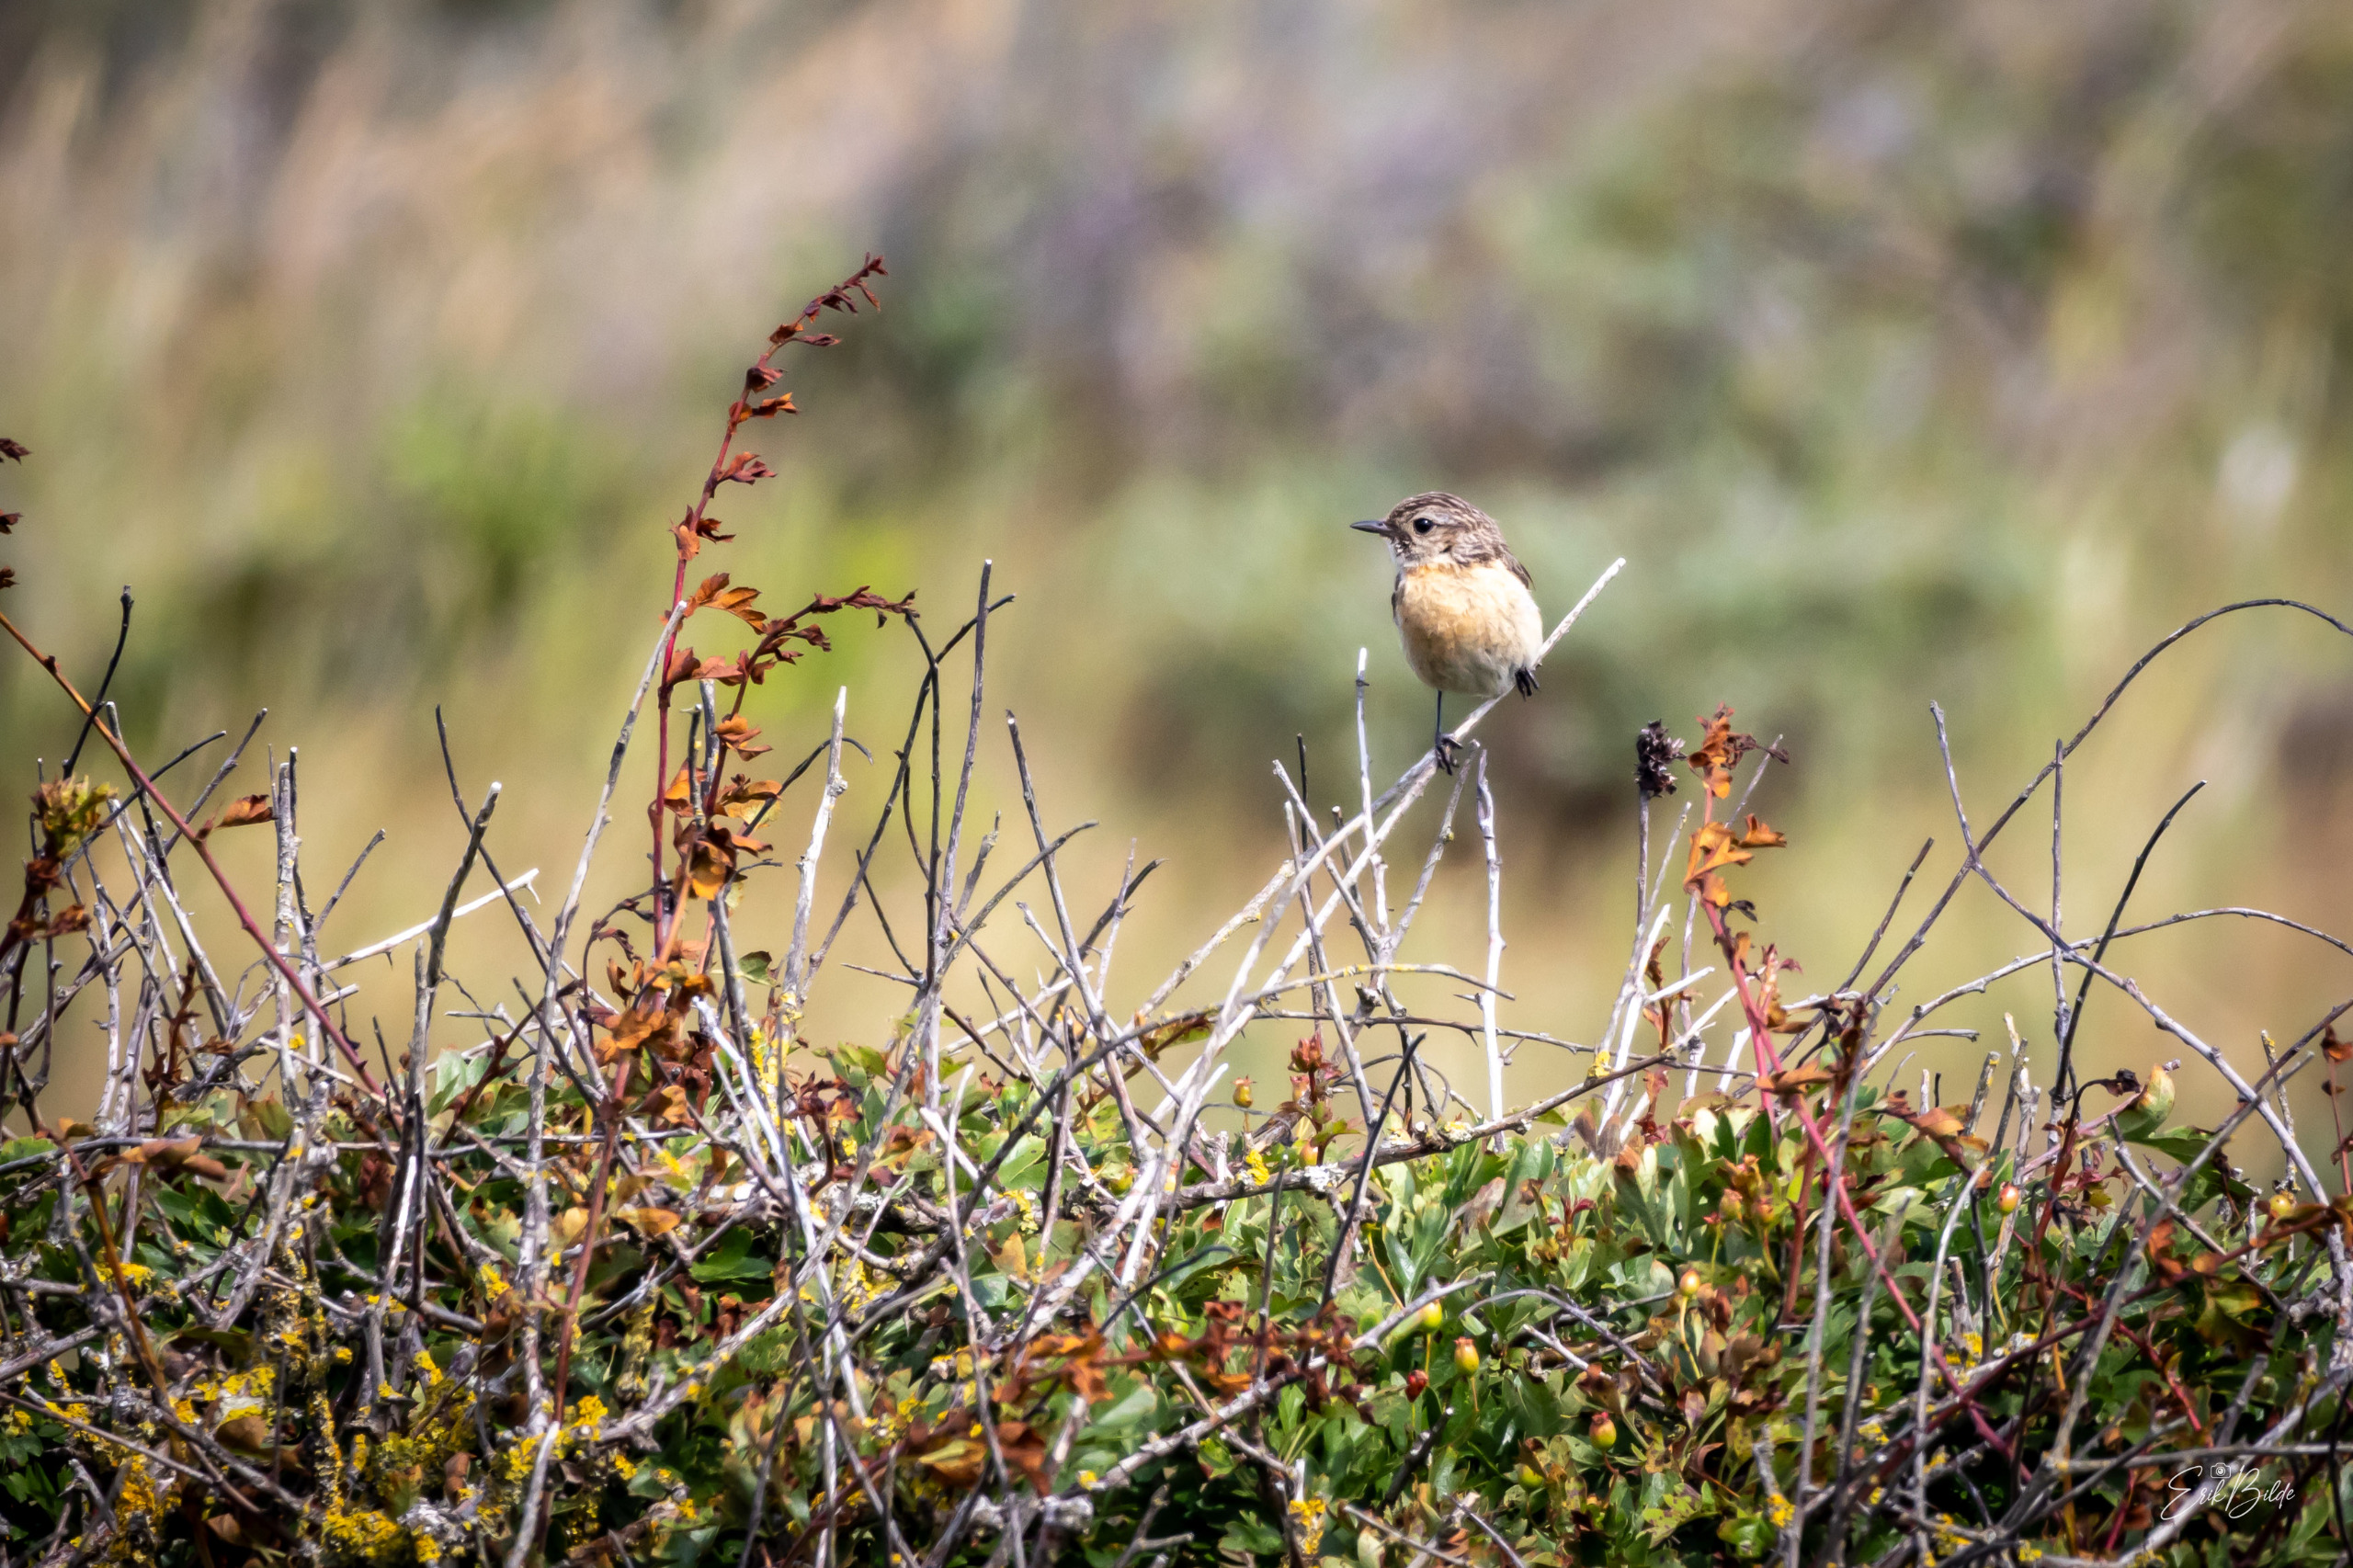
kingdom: Animalia
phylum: Chordata
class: Aves
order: Passeriformes
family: Muscicapidae
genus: Saxicola
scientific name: Saxicola rubicola
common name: Sortstrubet bynkefugl
